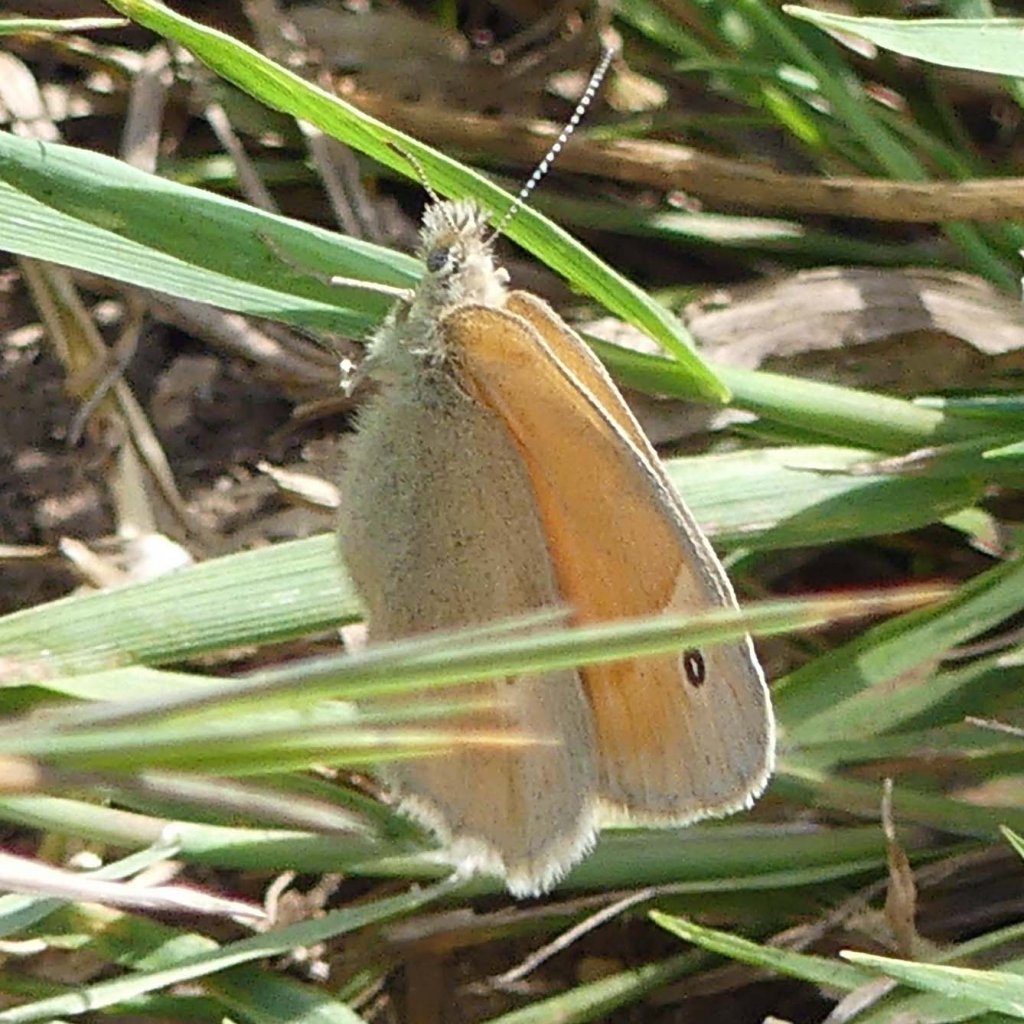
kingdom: Animalia
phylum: Arthropoda
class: Insecta
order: Lepidoptera
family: Nymphalidae
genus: Coenonympha
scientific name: Coenonympha tullia
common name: Large Heath
